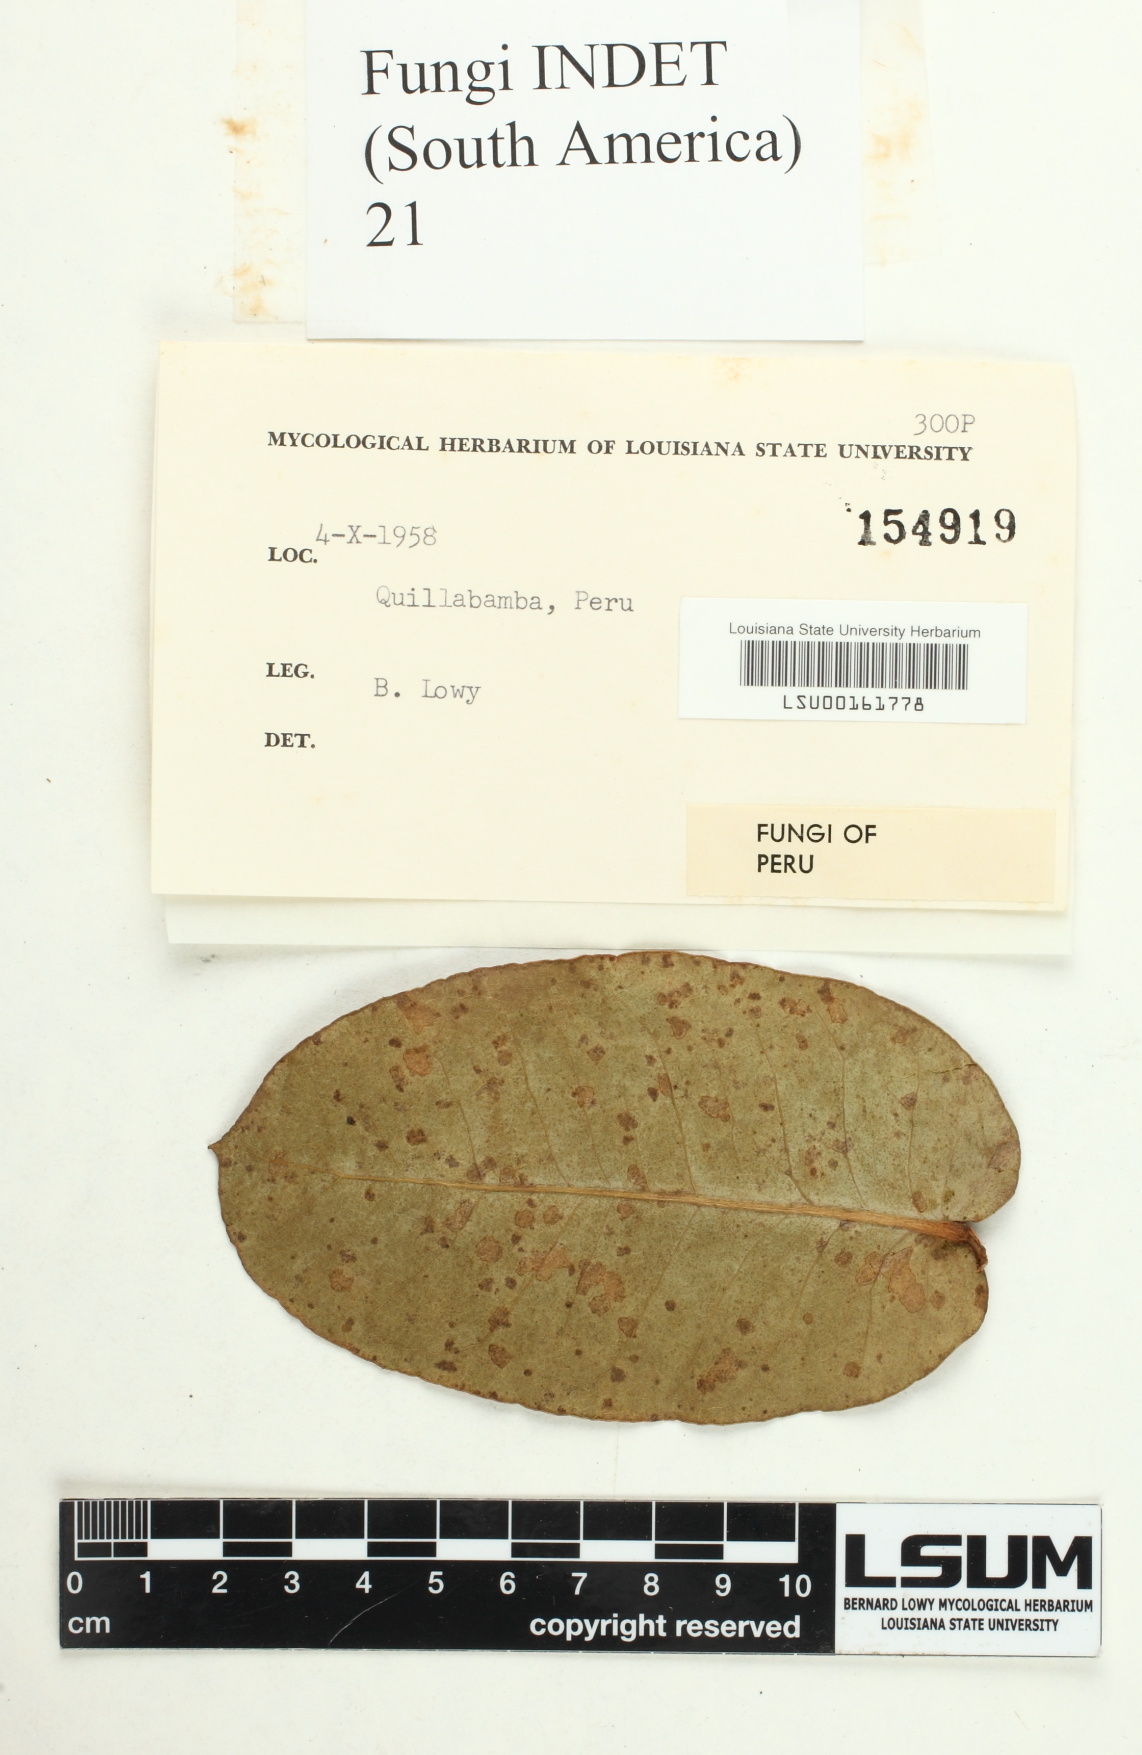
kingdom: Fungi
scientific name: Fungi
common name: Fungi
